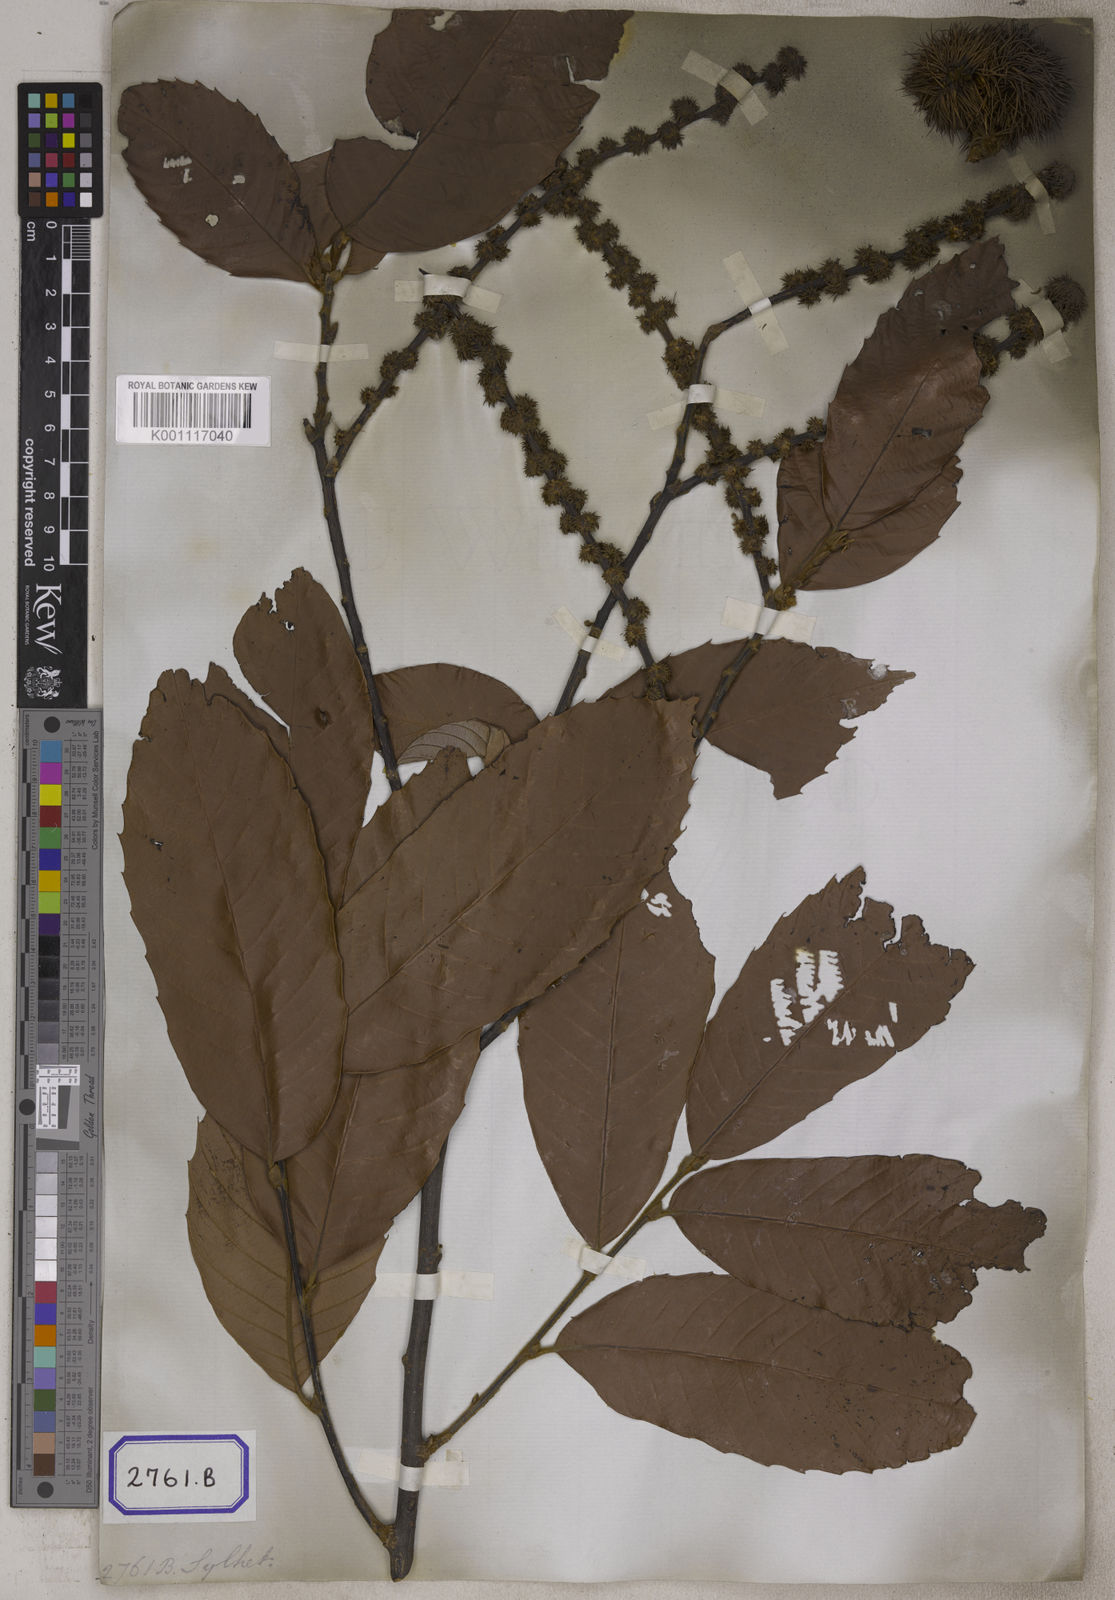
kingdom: Plantae
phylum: Tracheophyta
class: Magnoliopsida
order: Fagales
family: Fagaceae
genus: Castanopsis
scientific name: Castanopsis indica
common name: Indian-chestnut
